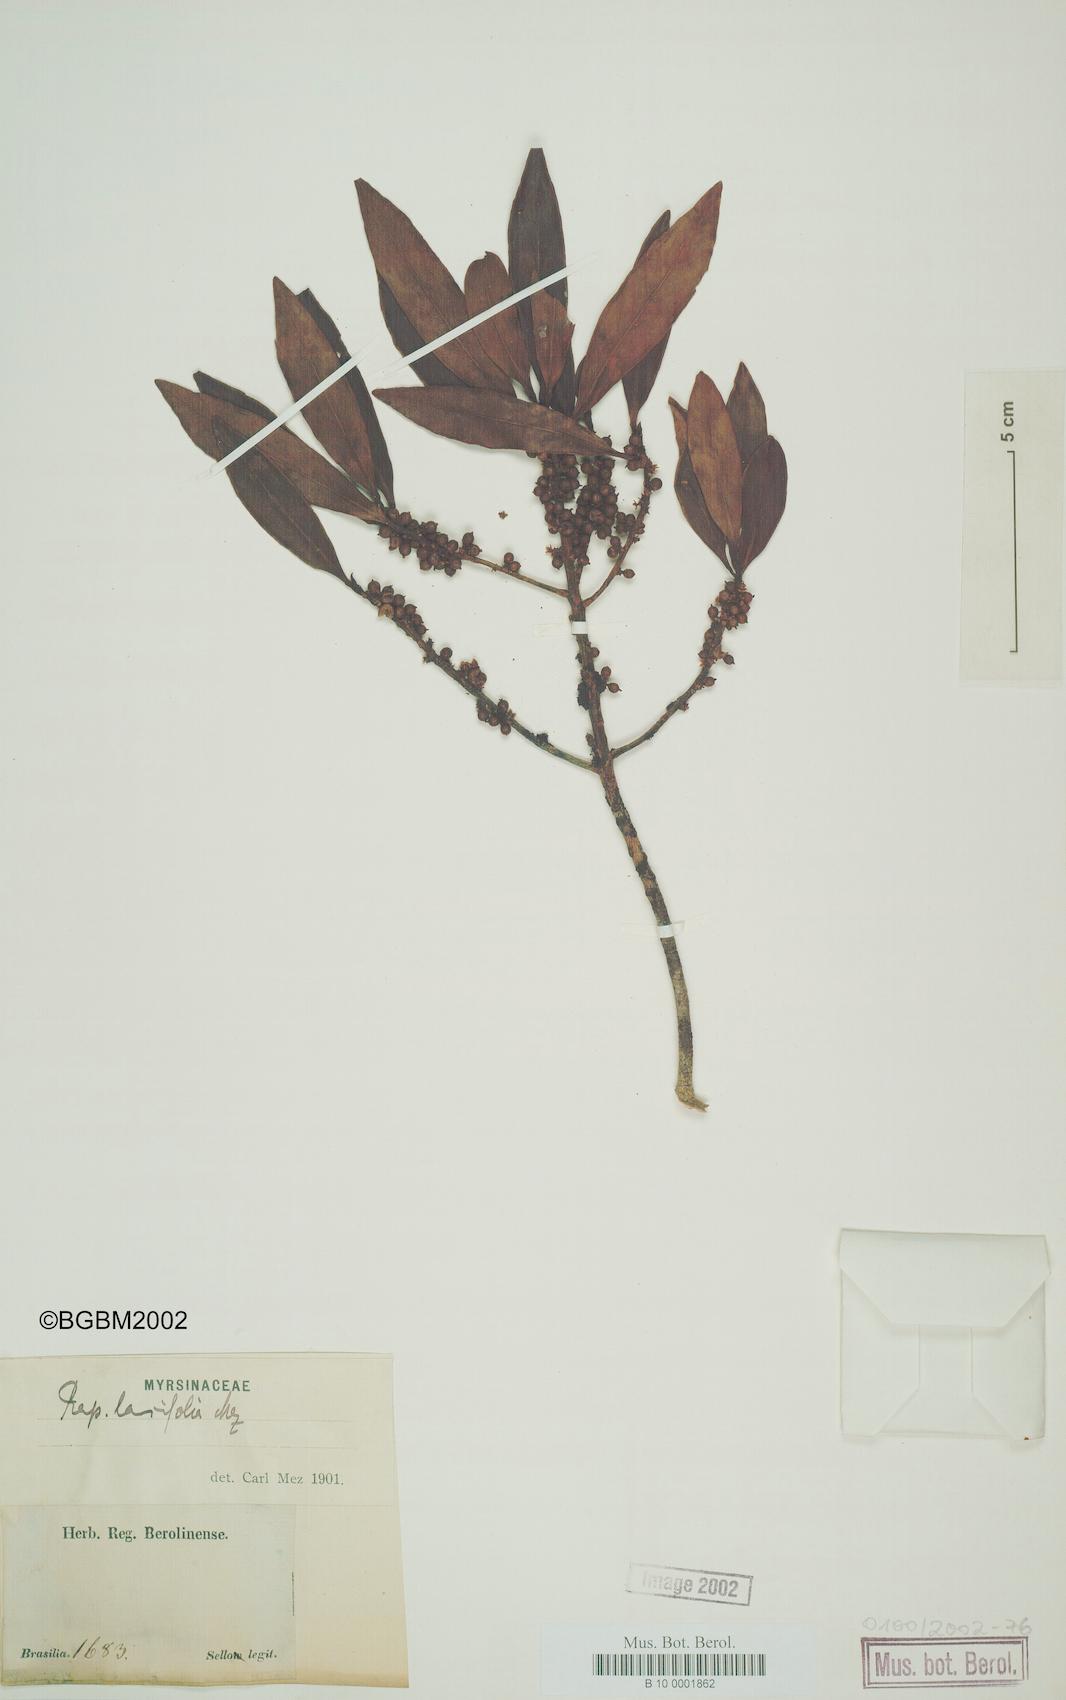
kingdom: Plantae
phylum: Tracheophyta
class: Magnoliopsida
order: Ericales
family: Primulaceae
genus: Myrsine
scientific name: Myrsine latifolia
